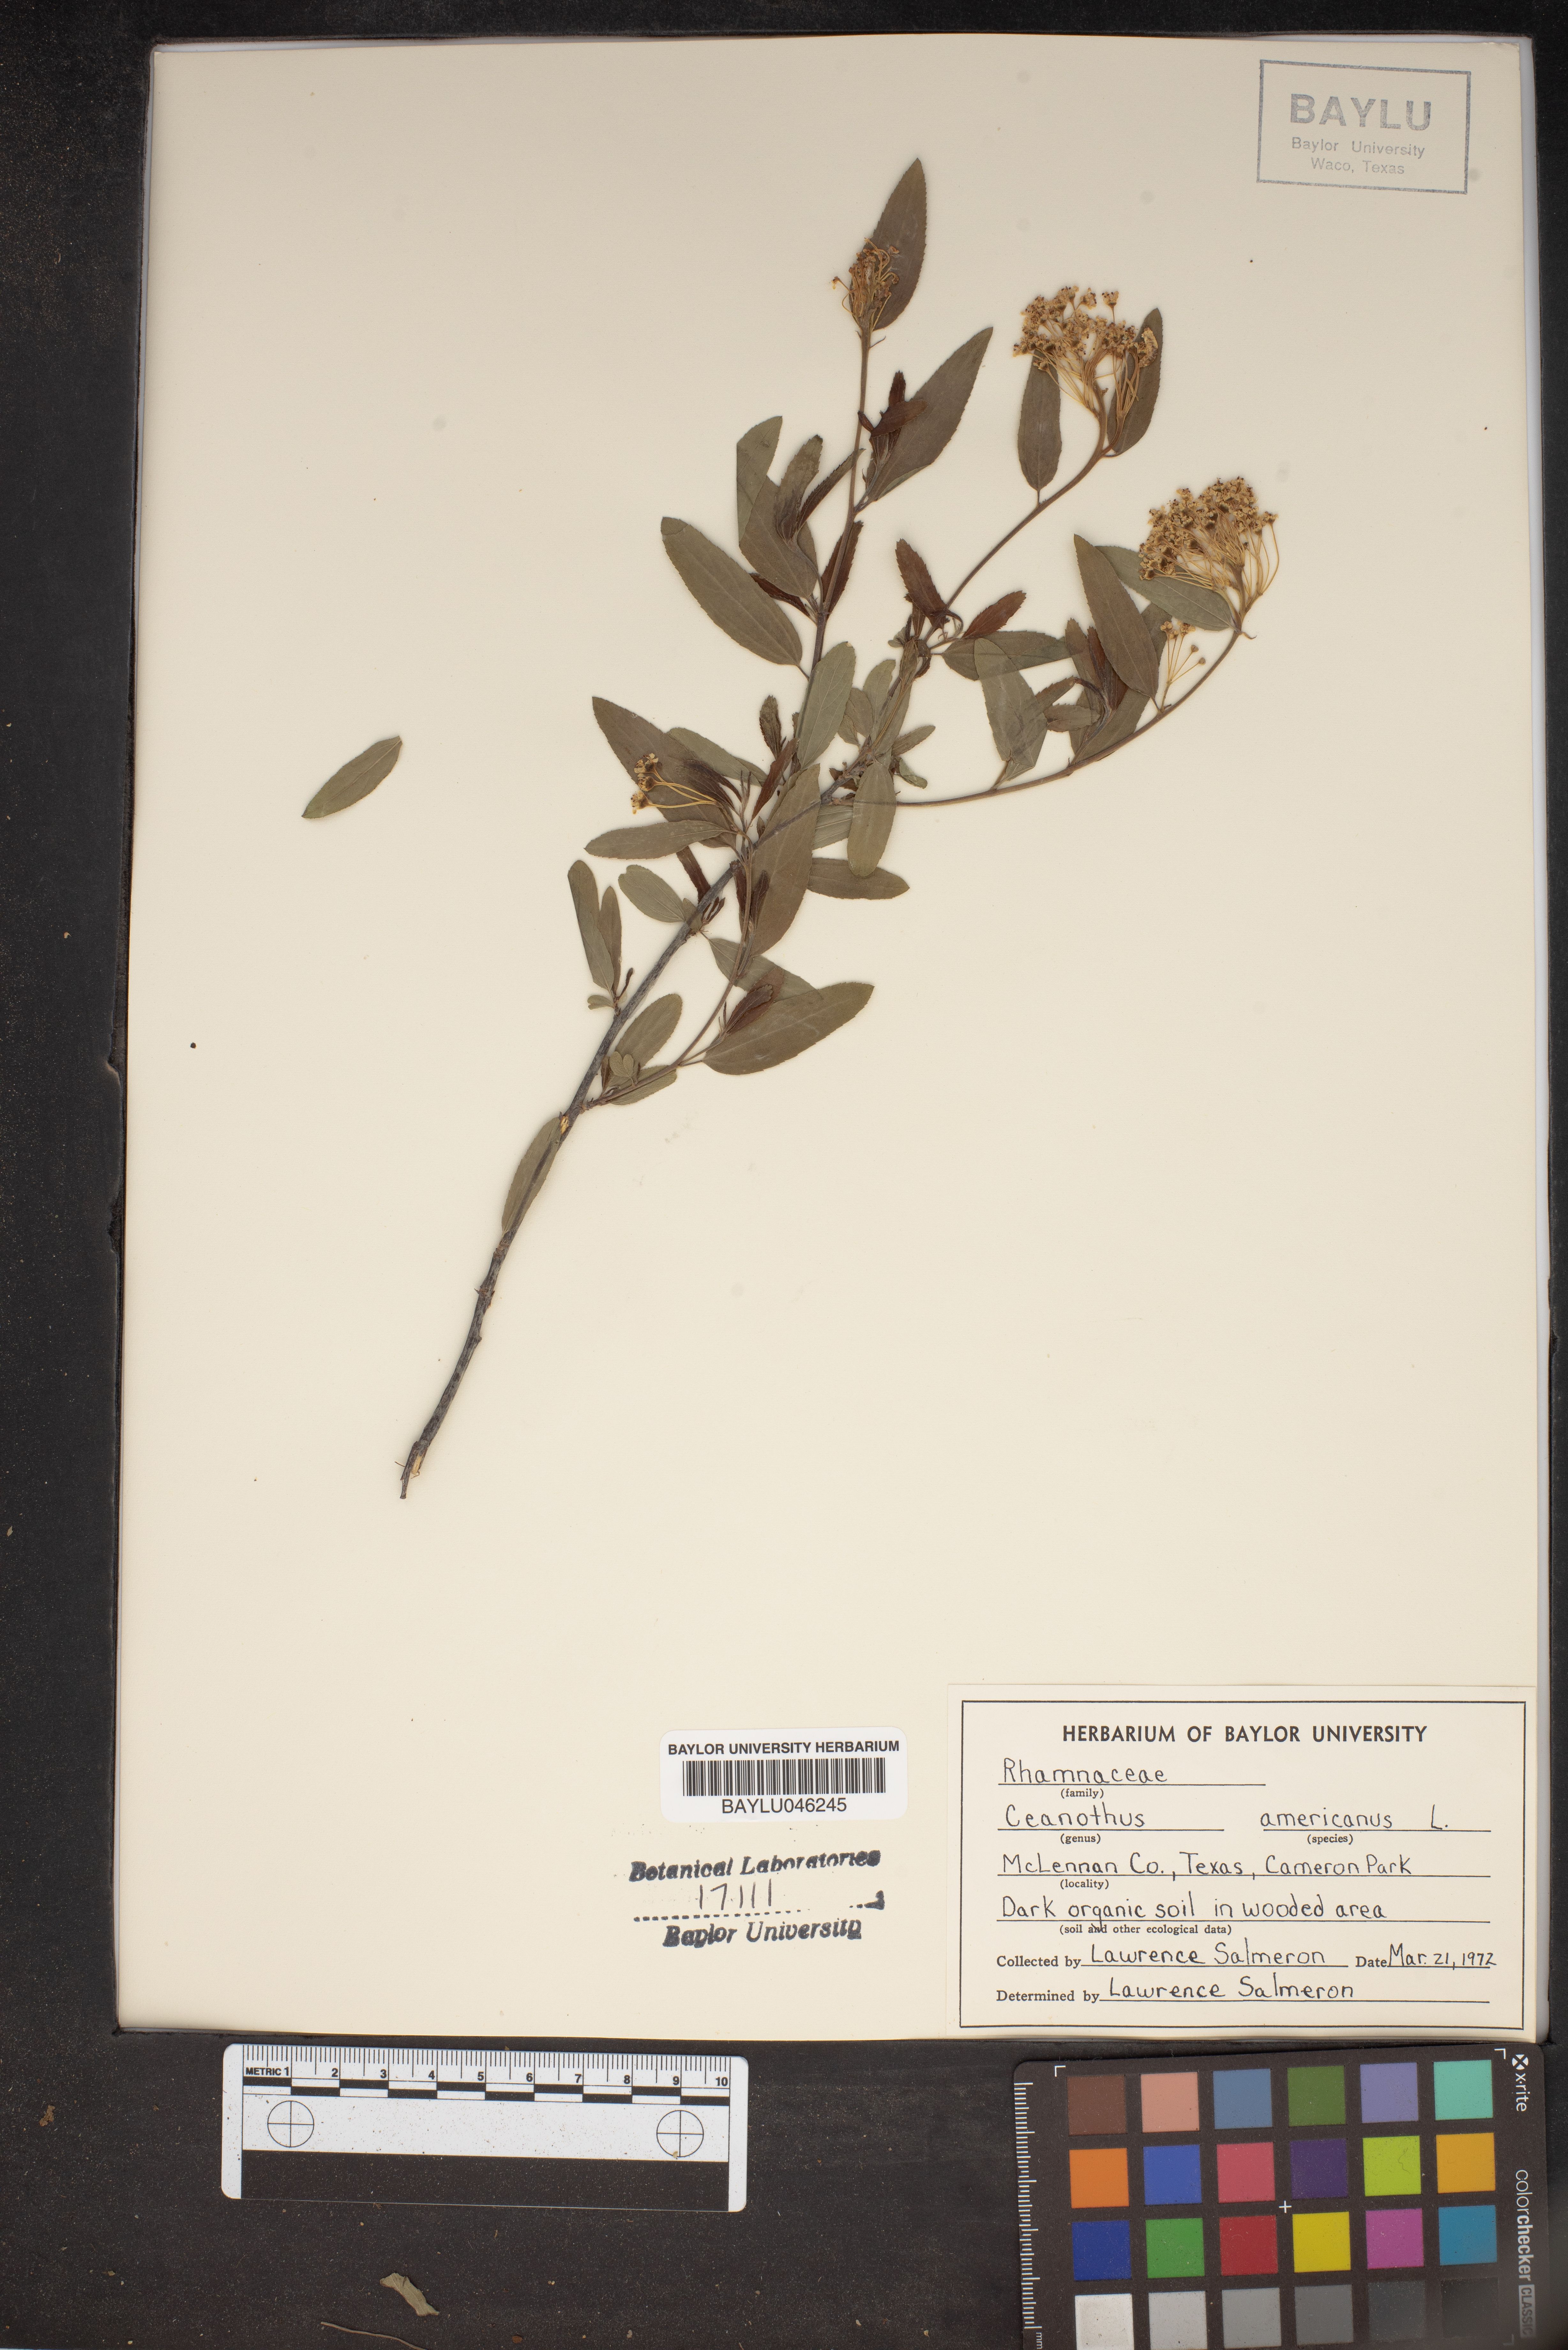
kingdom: Plantae
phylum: Tracheophyta
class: Magnoliopsida
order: Rosales
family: Rhamnaceae
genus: Ceanothus
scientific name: Ceanothus americanus
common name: Redroot
